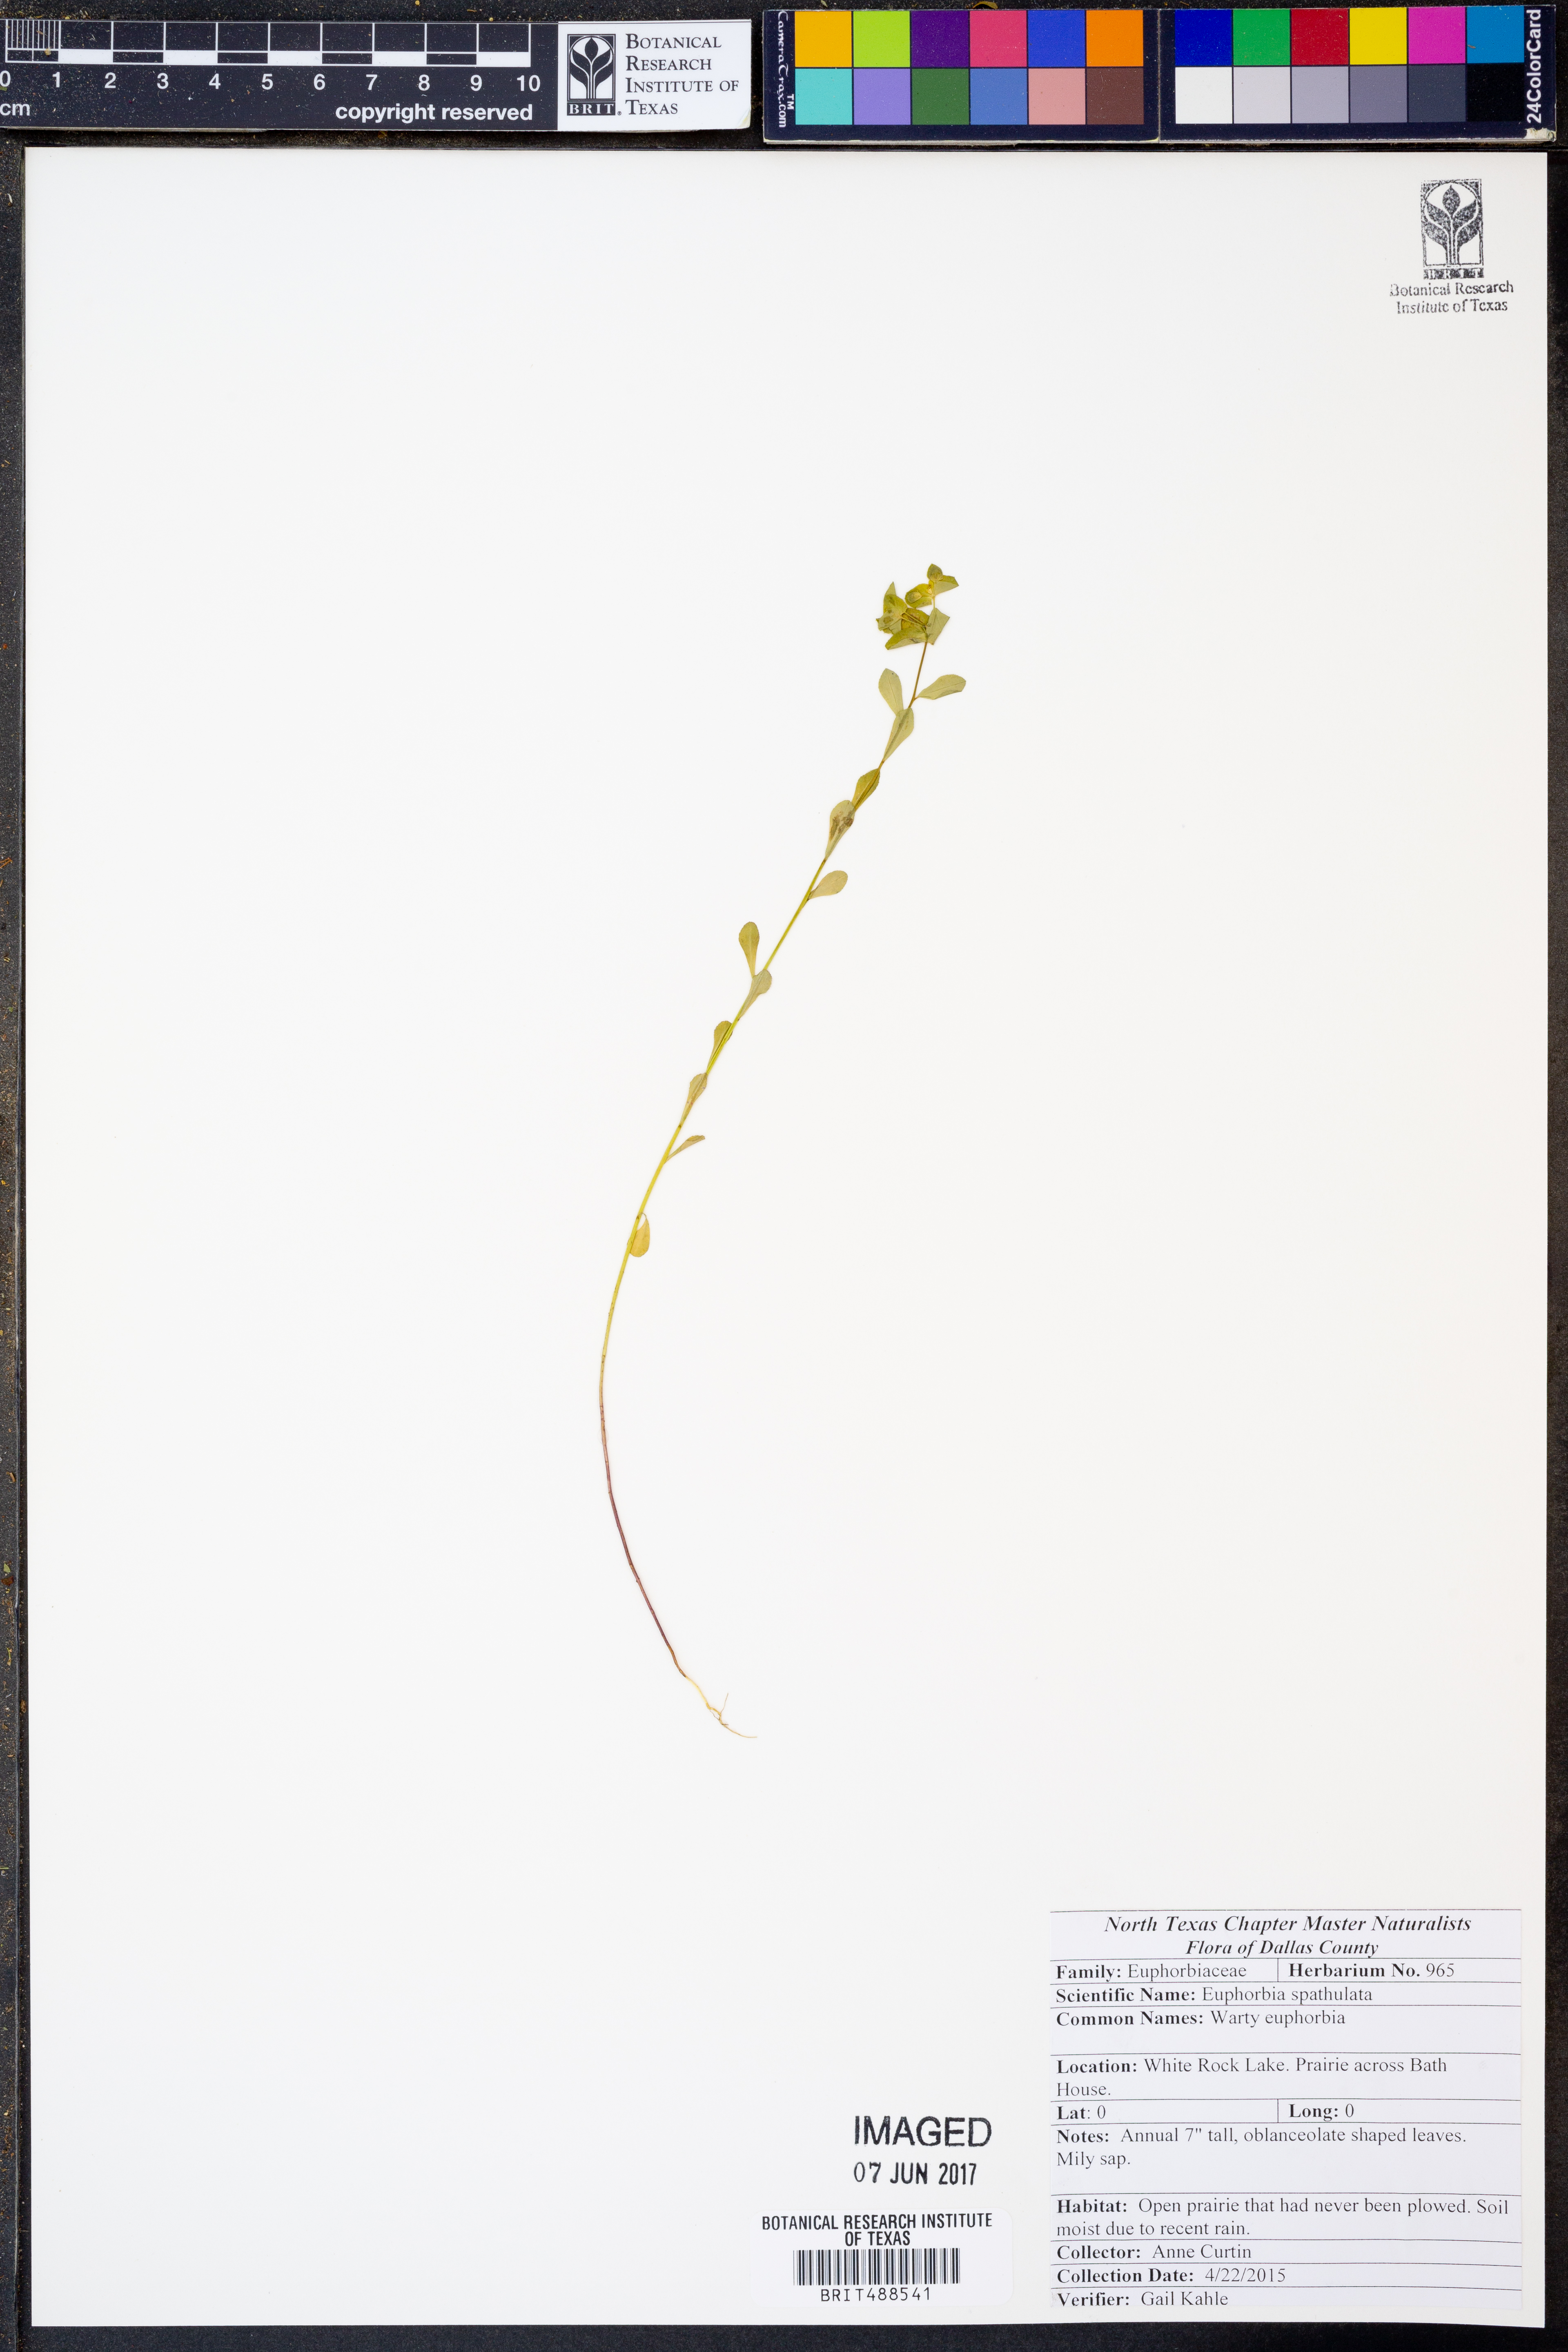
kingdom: Plantae
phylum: Tracheophyta
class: Magnoliopsida
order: Malpighiales
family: Euphorbiaceae
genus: Euphorbia
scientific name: Euphorbia spathulata
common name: Blunt spurge
